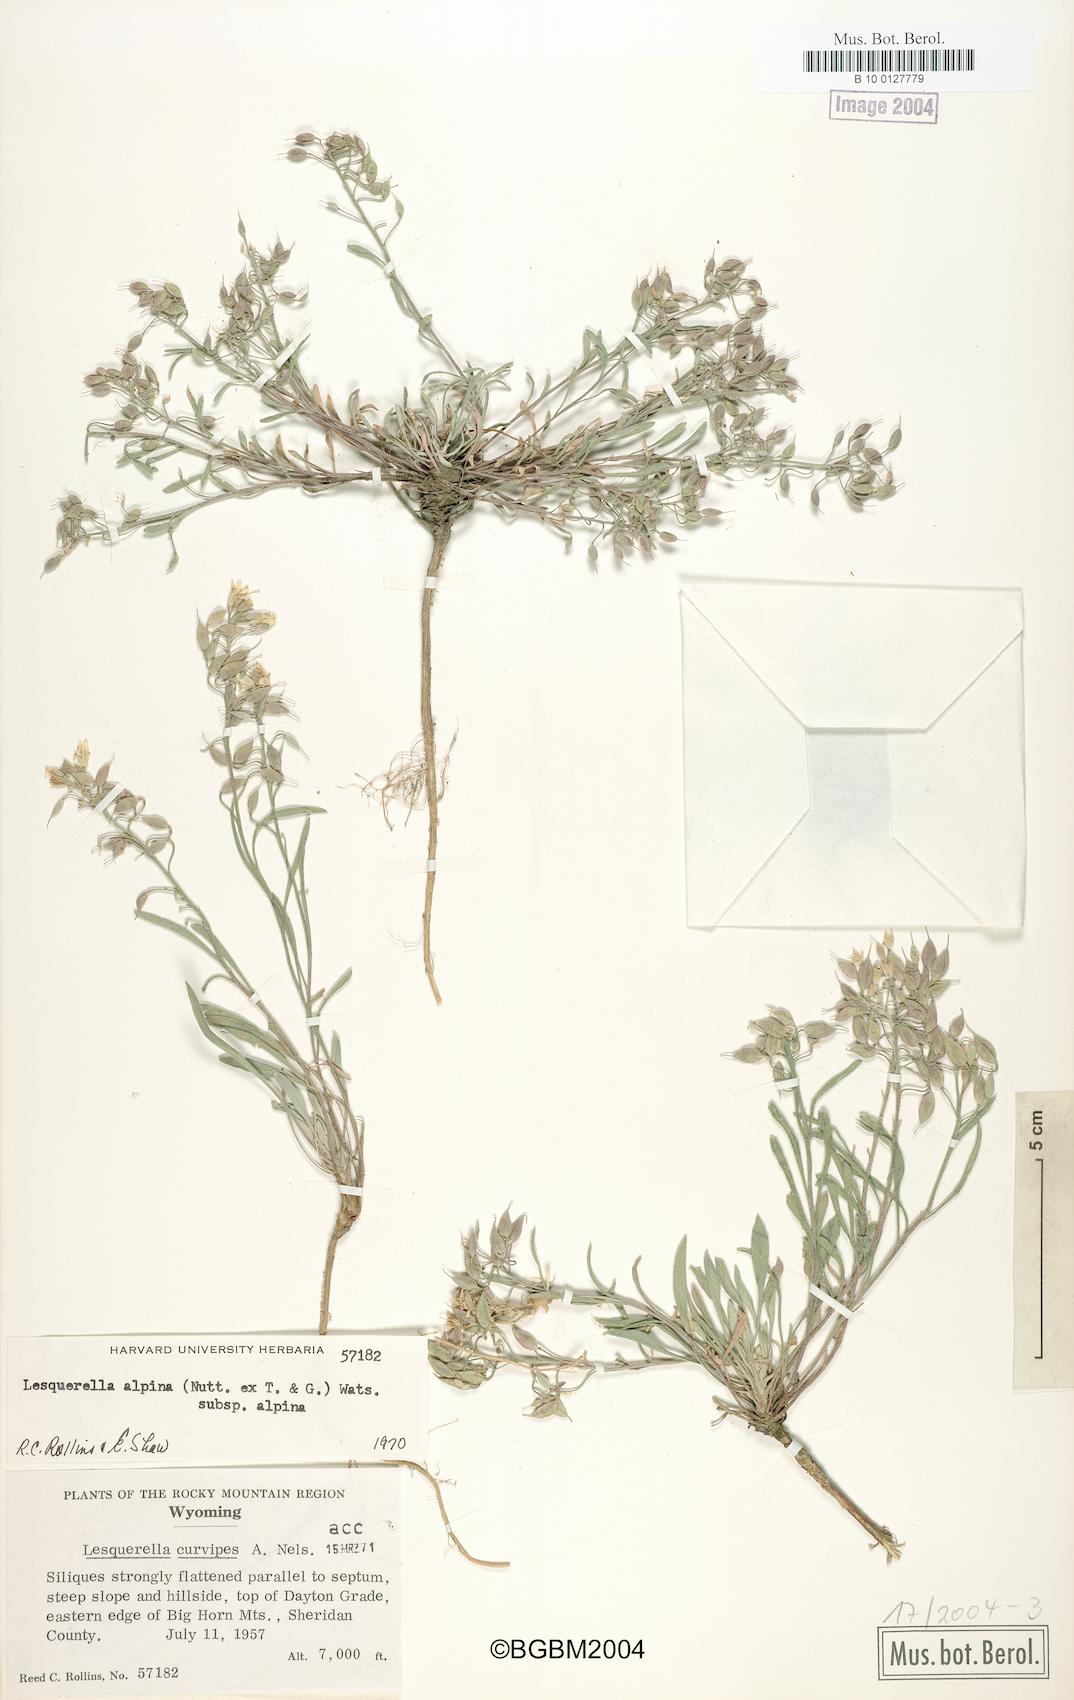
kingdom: Plantae
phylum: Tracheophyta
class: Magnoliopsida
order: Brassicales
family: Brassicaceae
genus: Physaria
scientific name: Physaria reediana
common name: Rollins's bladderpod
